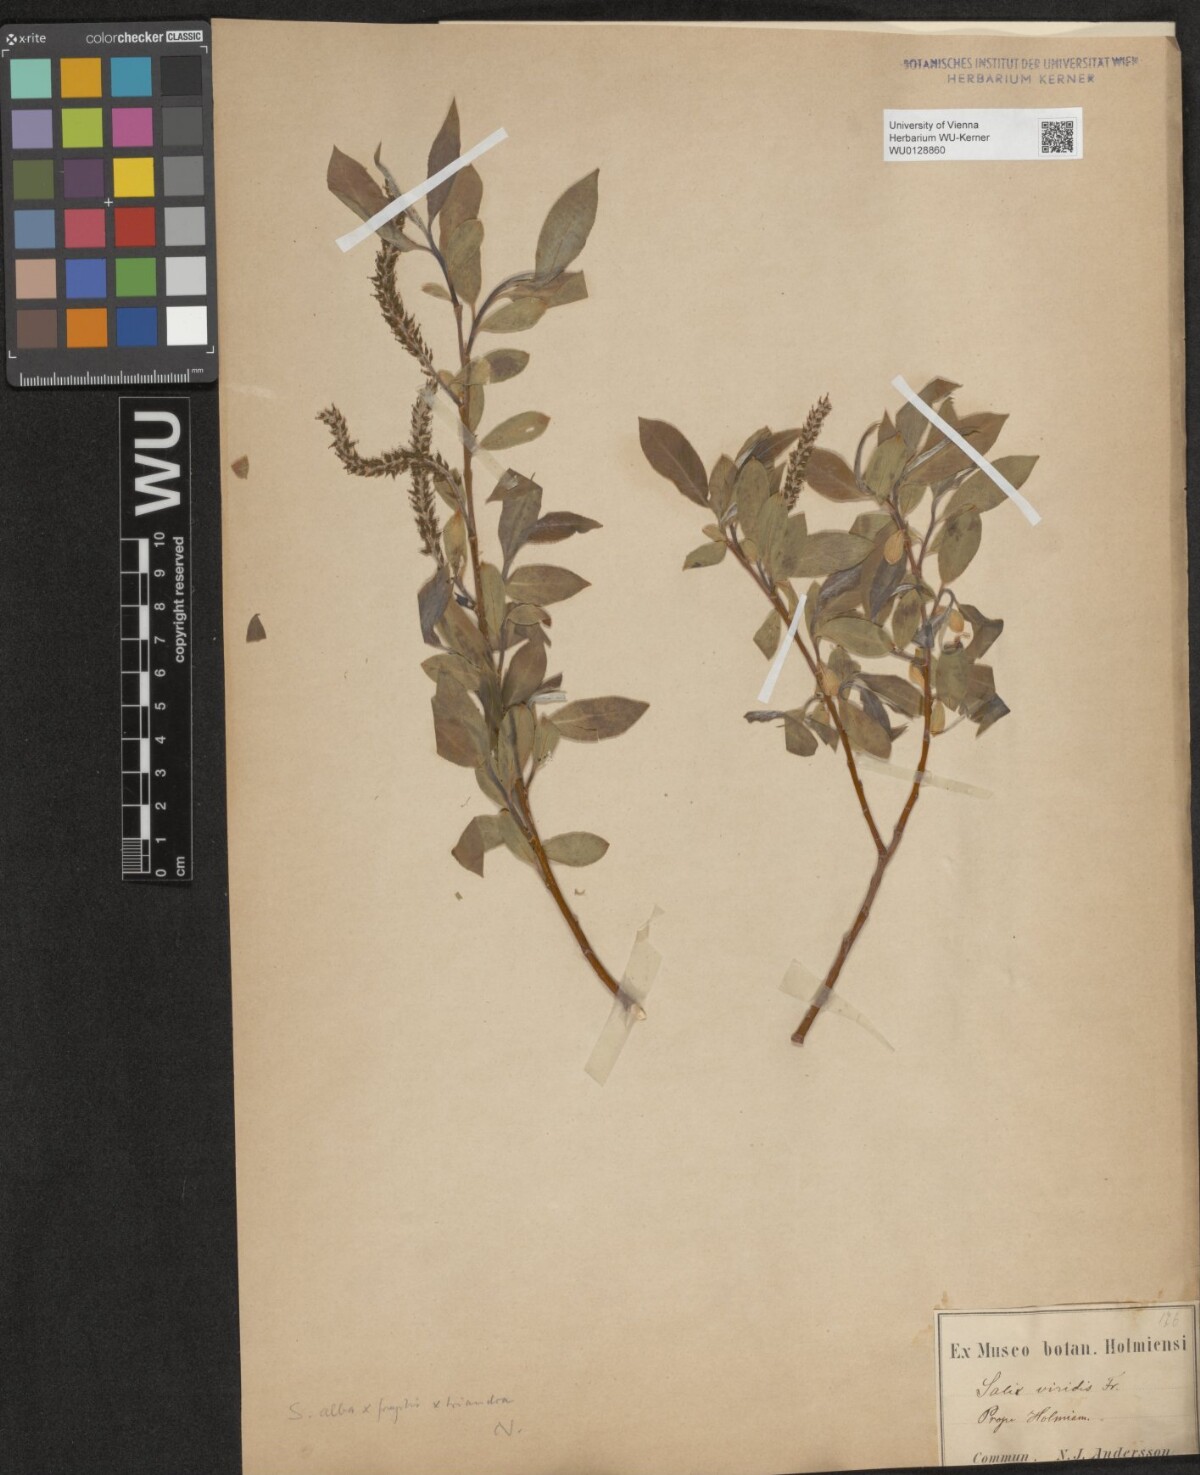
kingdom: Plantae
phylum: Tracheophyta
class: Magnoliopsida
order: Malpighiales
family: Salicaceae
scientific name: Salicaceae
